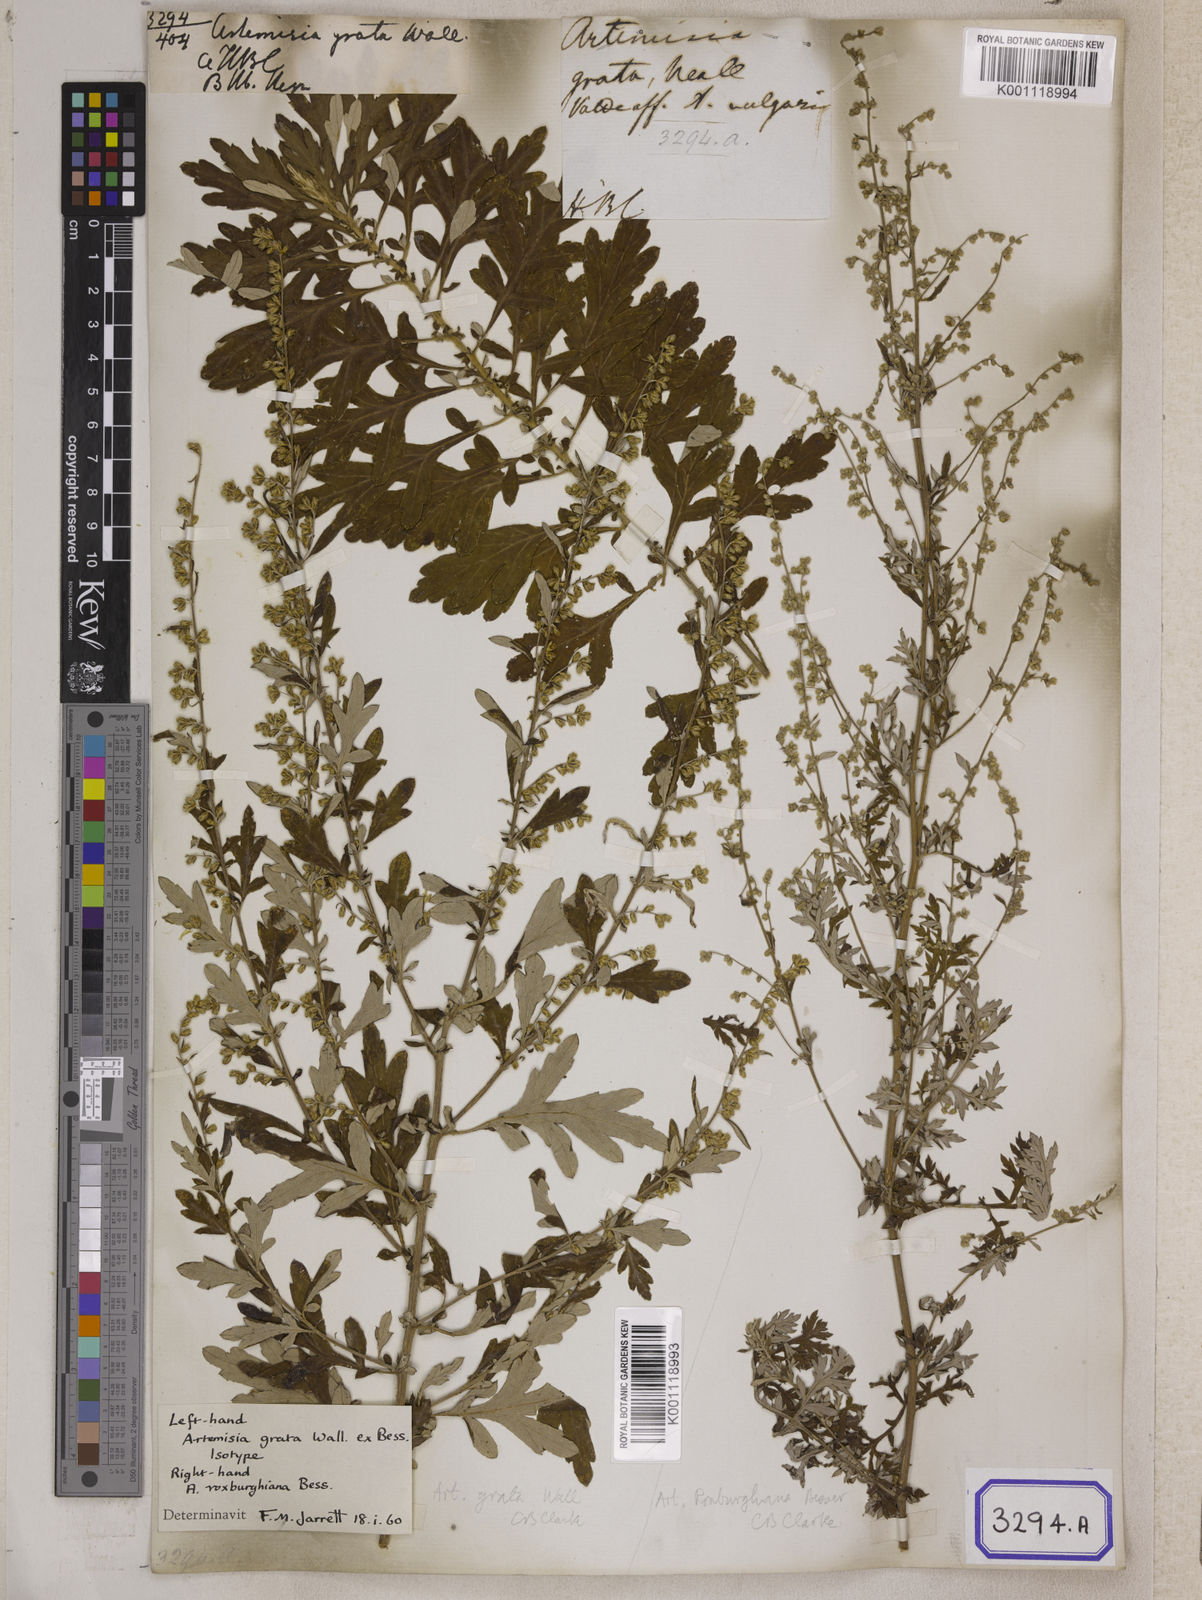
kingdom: Plantae
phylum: Tracheophyta
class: Magnoliopsida
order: Asterales
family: Asteraceae
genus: Artemisia
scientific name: Artemisia indica
